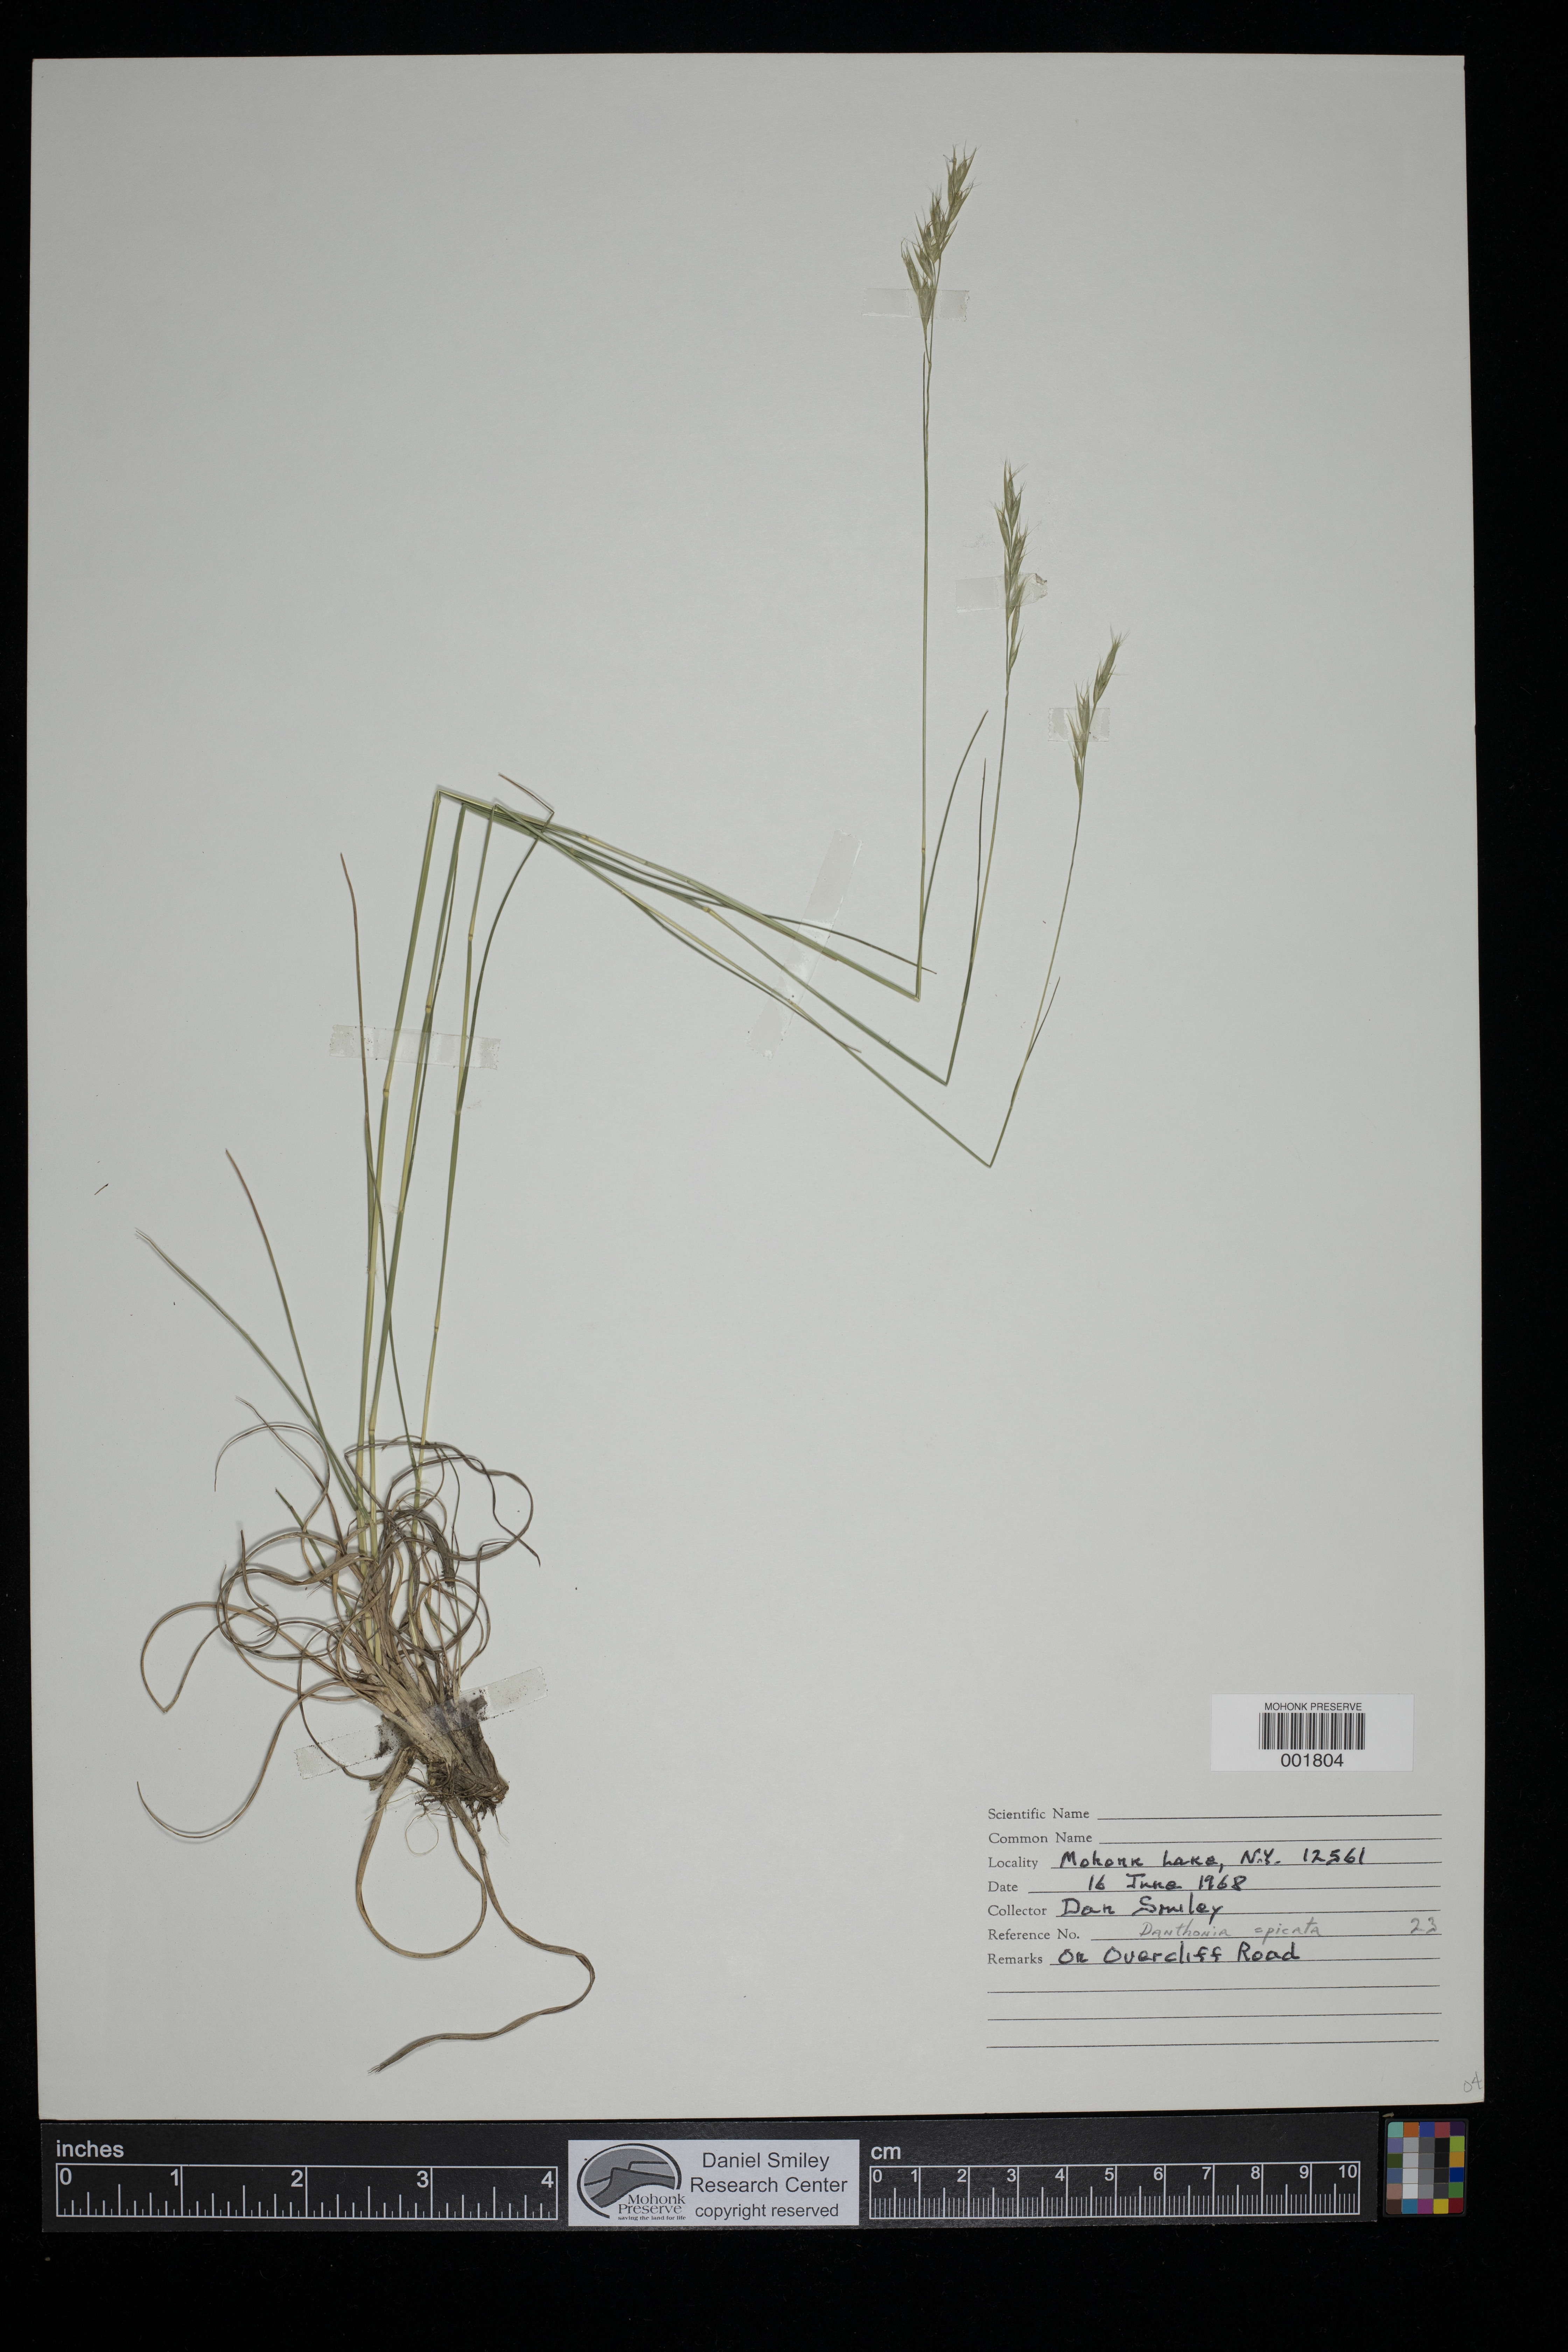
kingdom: Plantae
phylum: Tracheophyta
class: Liliopsida
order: Poales
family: Poaceae
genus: Danthonia
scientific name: Danthonia spicata
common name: Common wild oatgrass
